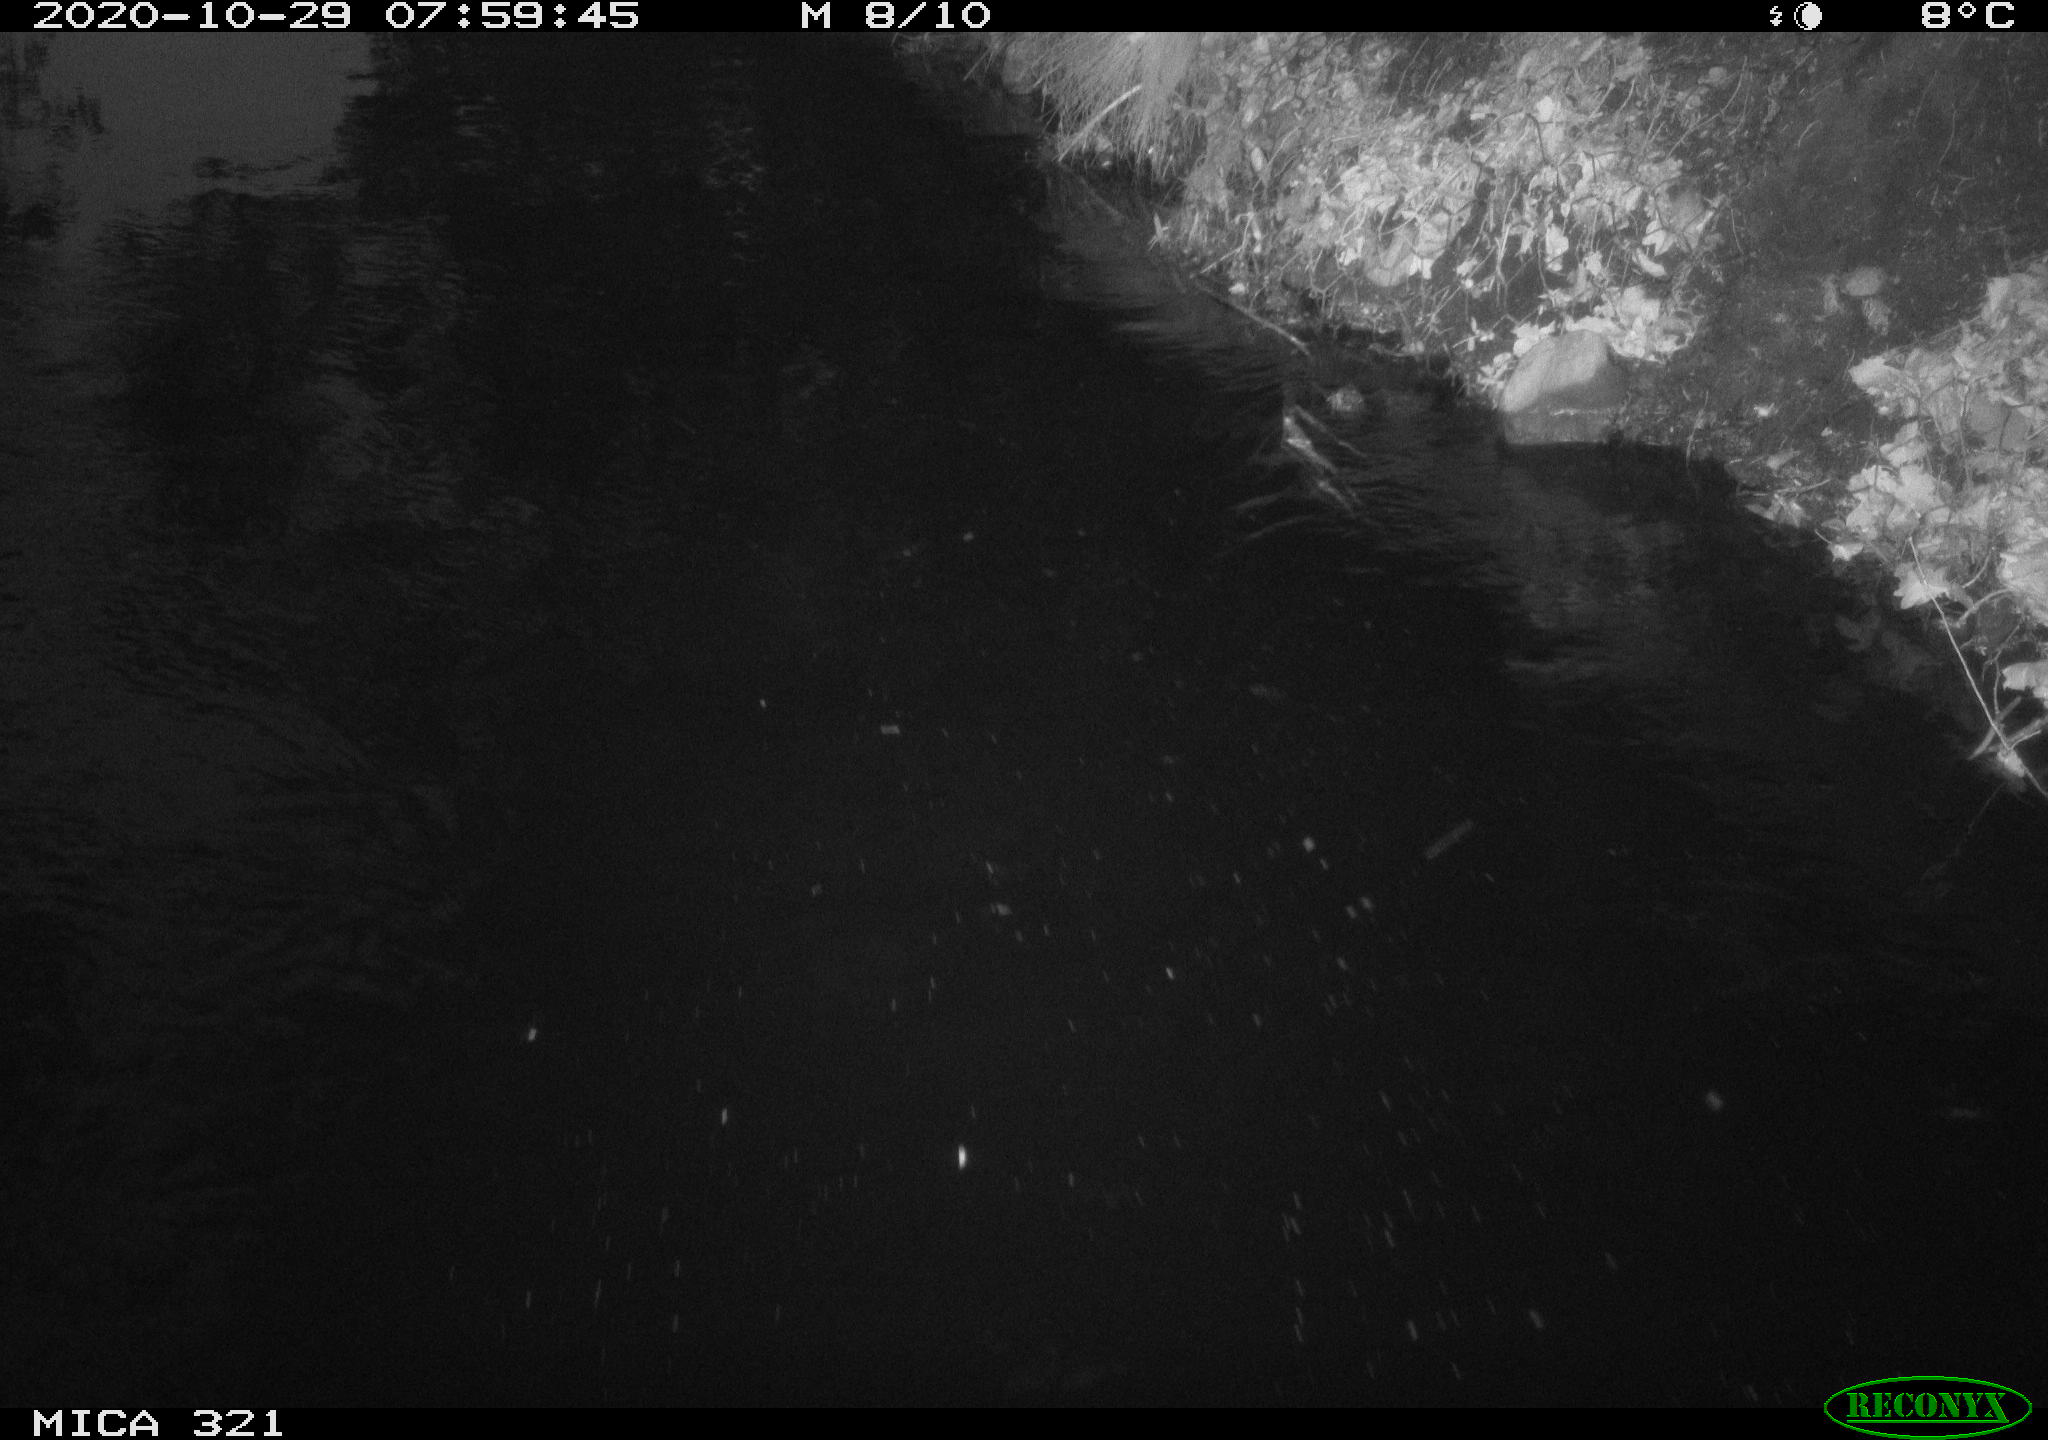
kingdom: Animalia
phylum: Chordata
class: Aves
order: Anseriformes
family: Anatidae
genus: Anas
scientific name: Anas platyrhynchos
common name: Mallard
